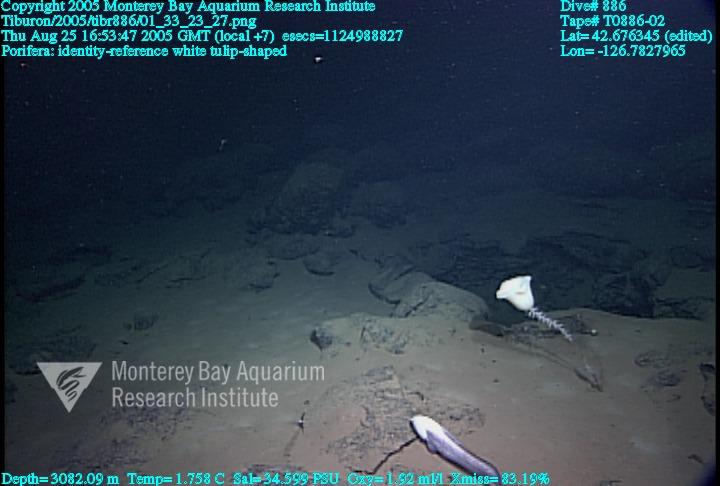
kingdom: Animalia
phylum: Porifera
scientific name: Porifera
